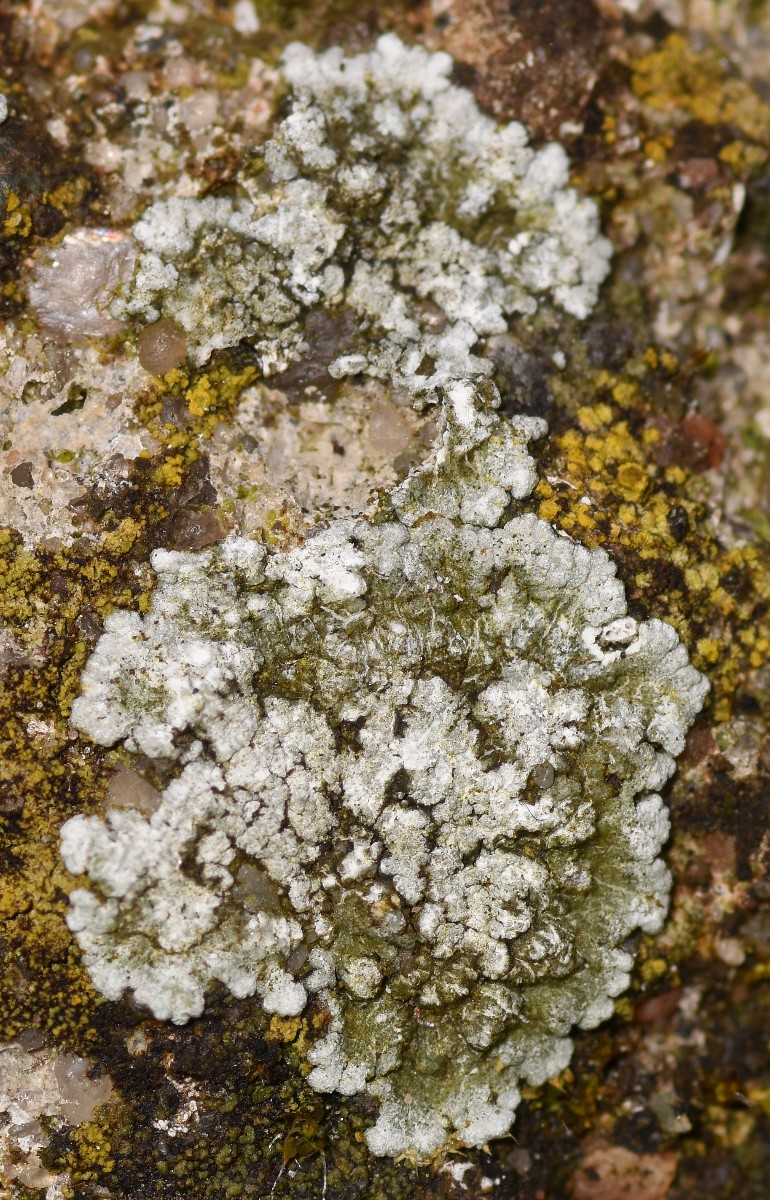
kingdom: Fungi
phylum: Ascomycota
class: Lecanoromycetes
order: Teloschistales
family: Teloschistaceae
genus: Kuettlingeria
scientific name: Kuettlingeria teicholyta
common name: grå orangelav
